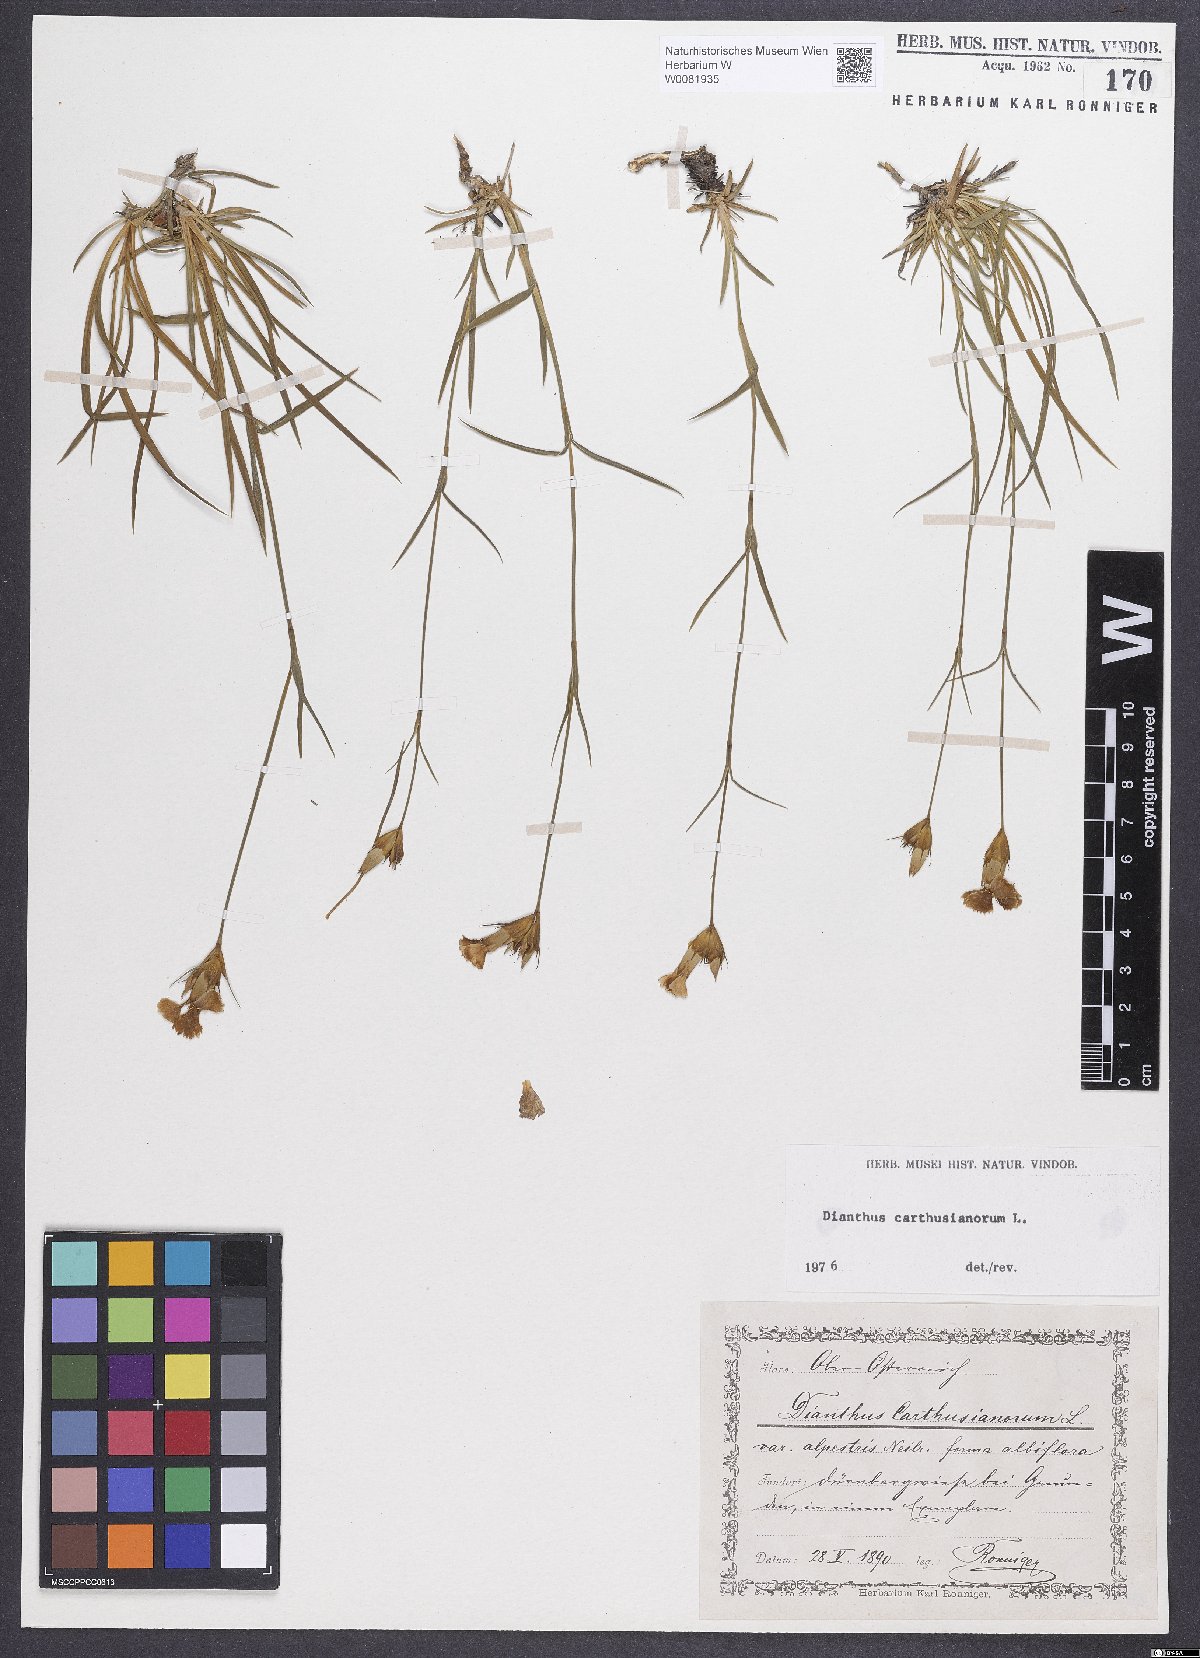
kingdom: Plantae
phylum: Tracheophyta
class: Magnoliopsida
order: Caryophyllales
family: Caryophyllaceae
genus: Dianthus
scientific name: Dianthus carthusianorum
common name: Carthusian pink
